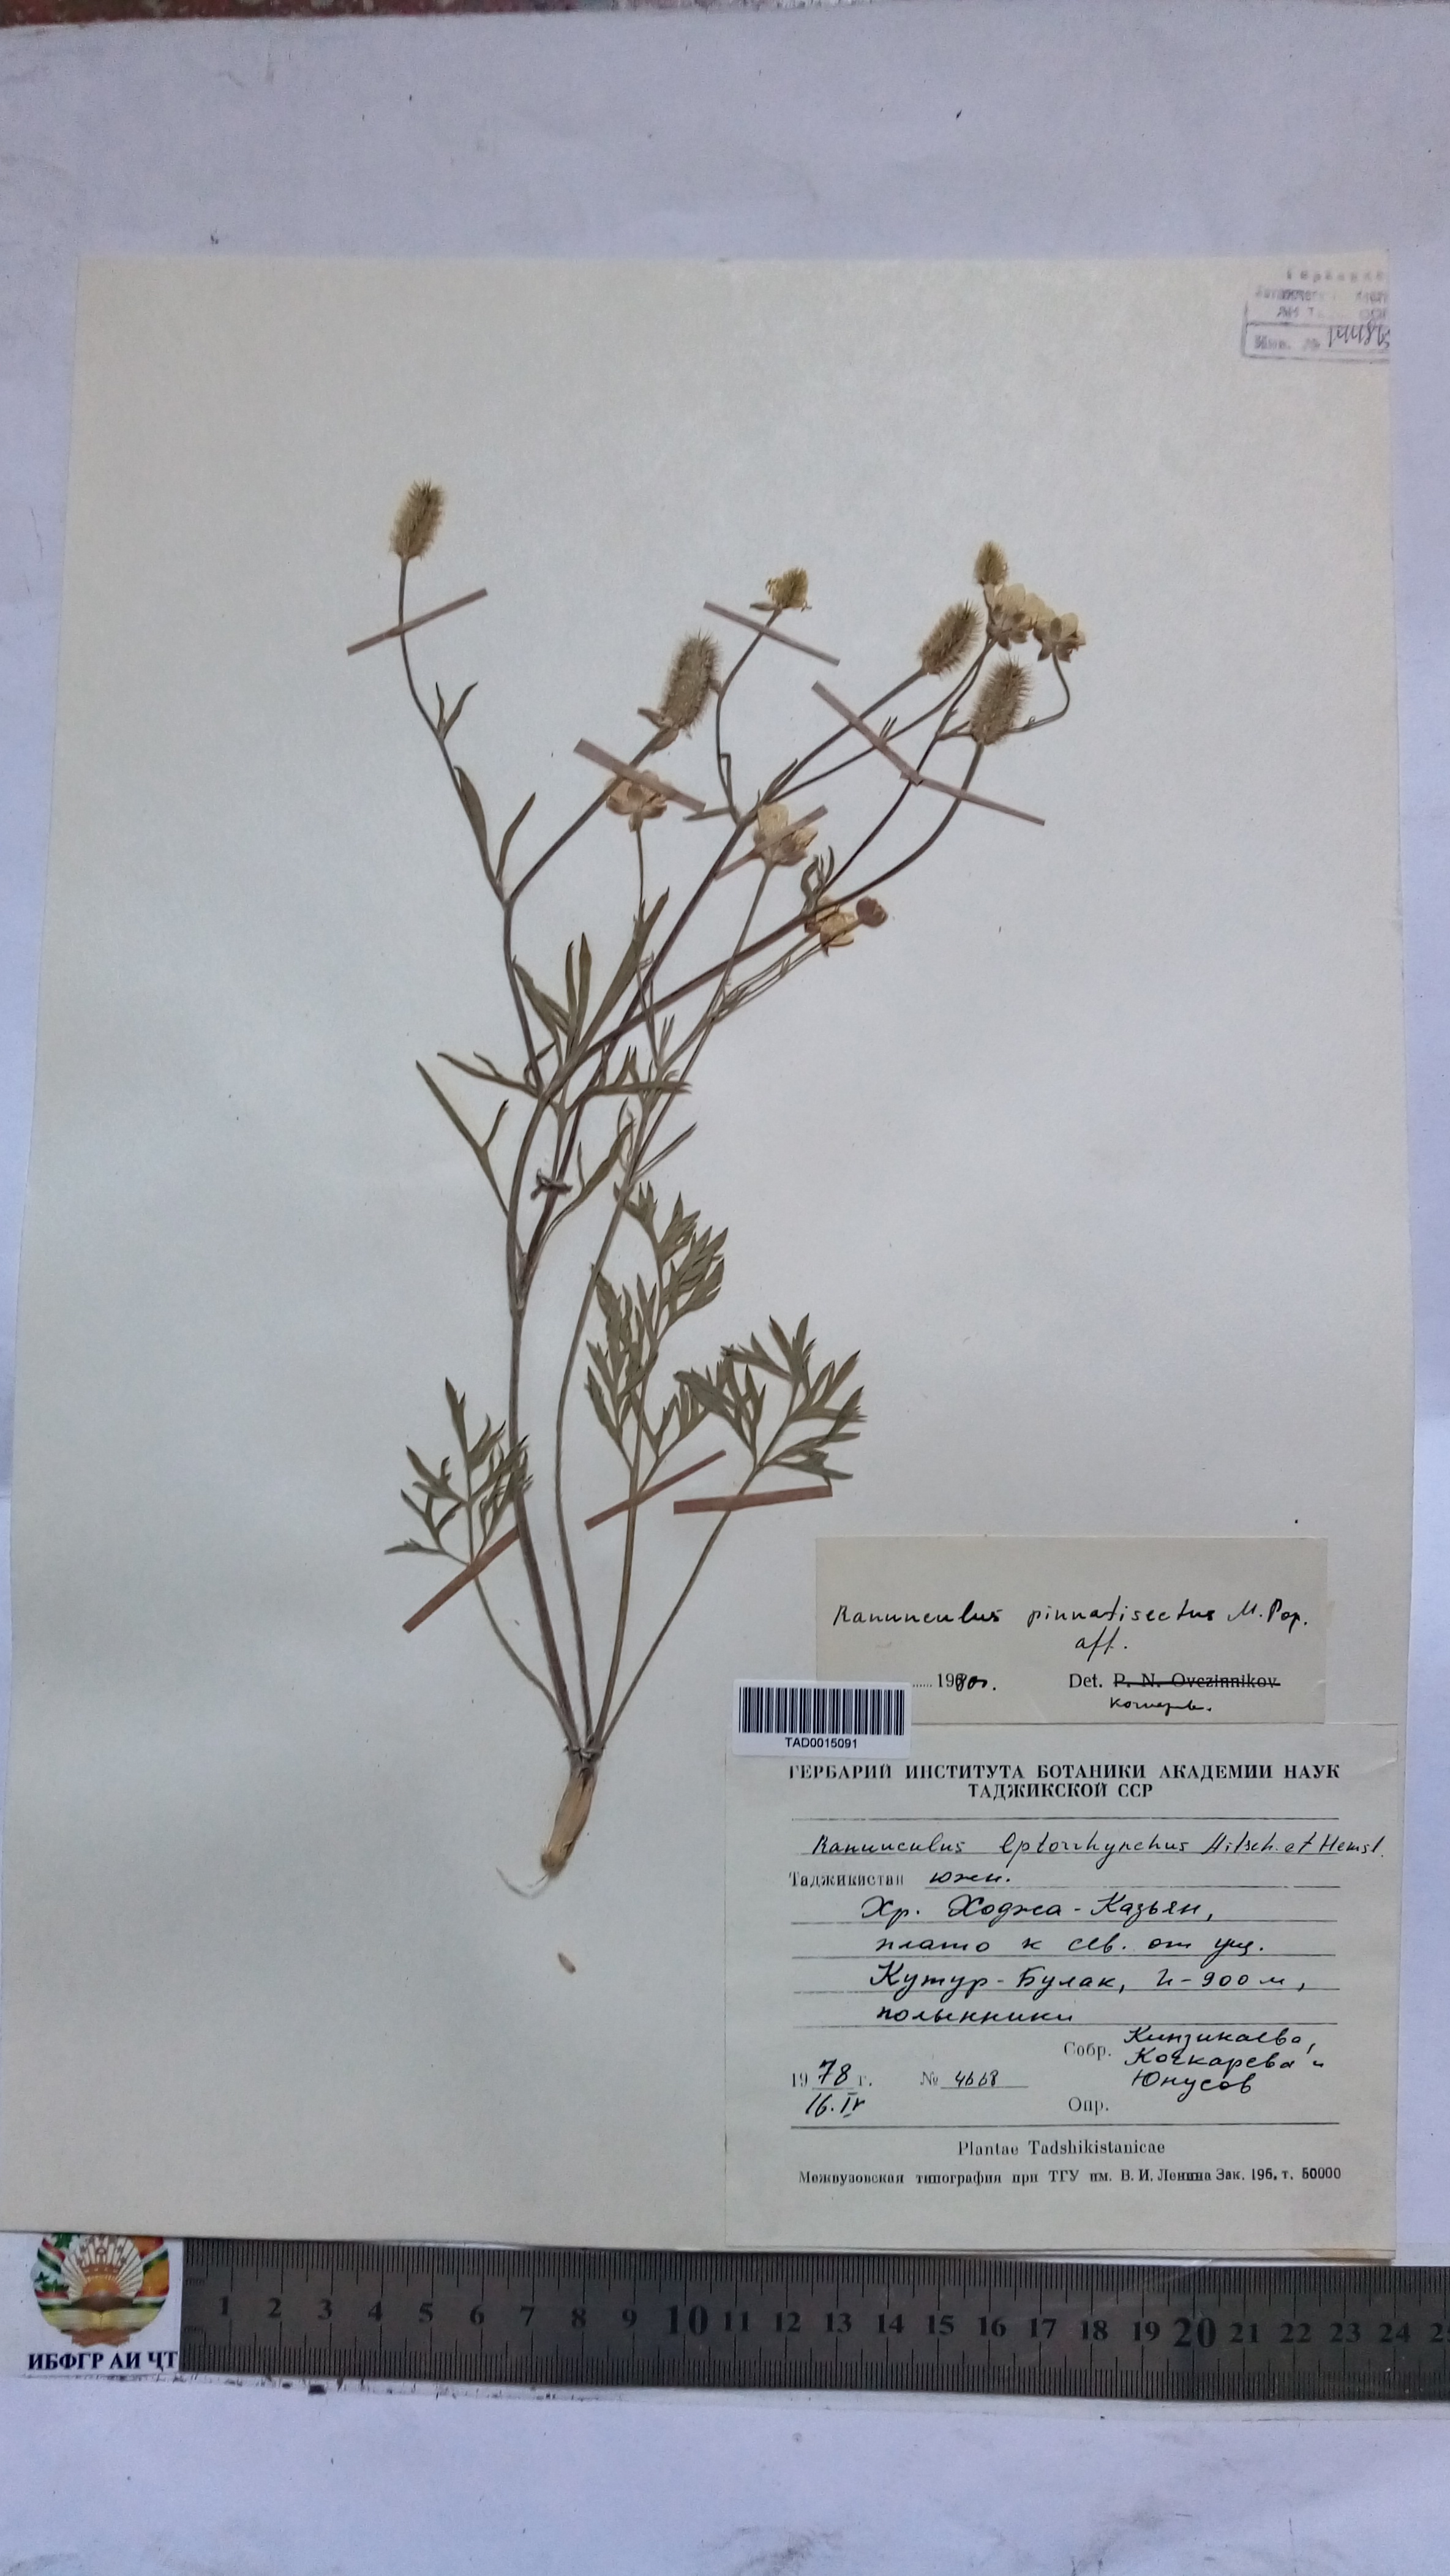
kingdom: Plantae
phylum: Tracheophyta
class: Magnoliopsida
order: Ranunculales
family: Ranunculaceae
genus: Ranunculus
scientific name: Ranunculus pinnatisectus
